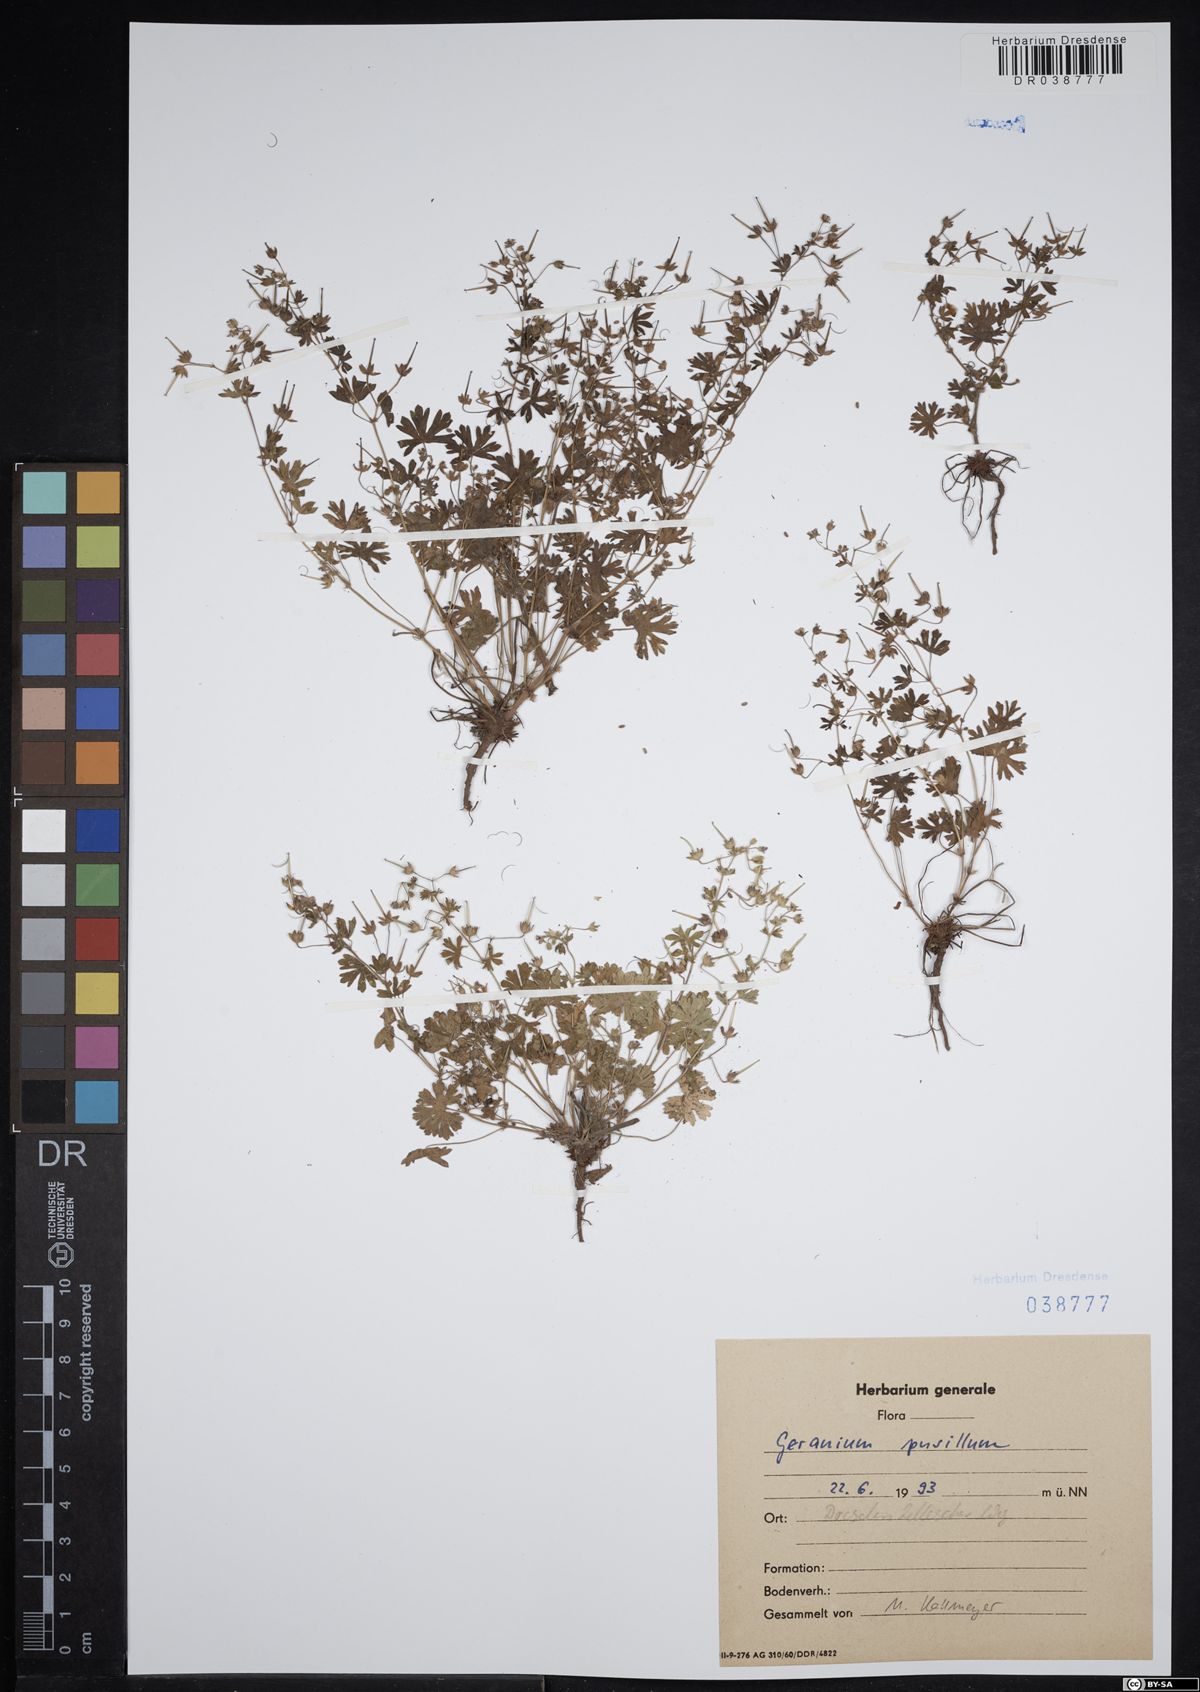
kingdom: Plantae
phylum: Tracheophyta
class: Magnoliopsida
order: Geraniales
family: Geraniaceae
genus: Geranium
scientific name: Geranium pusillum
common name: Small geranium
